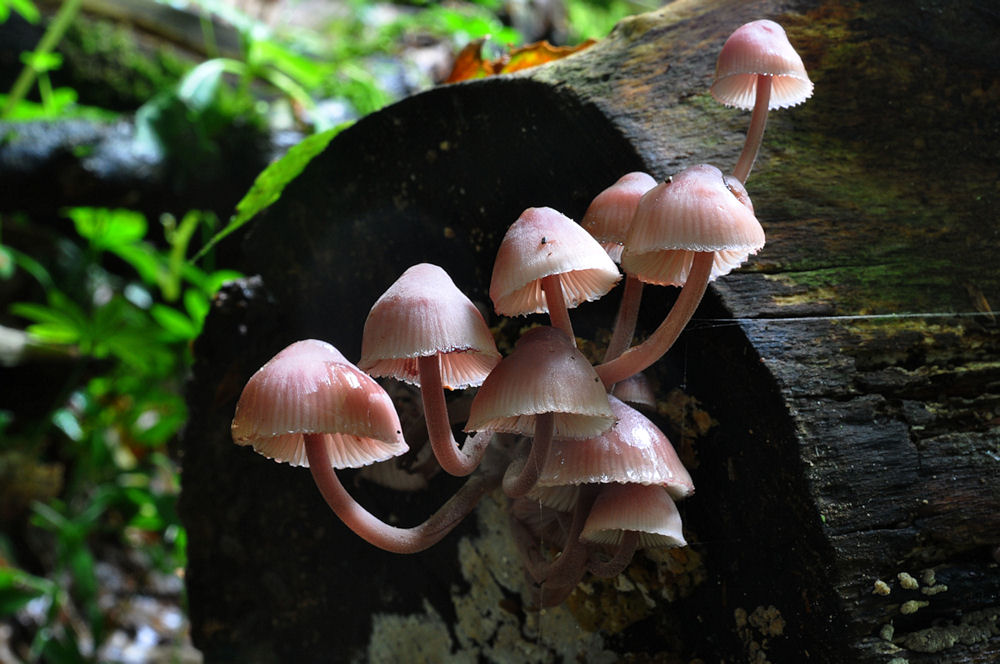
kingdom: Fungi
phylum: Basidiomycota
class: Agaricomycetes
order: Agaricales
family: Mycenaceae
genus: Mycena
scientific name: Mycena haematopus
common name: blødende huesvamp
